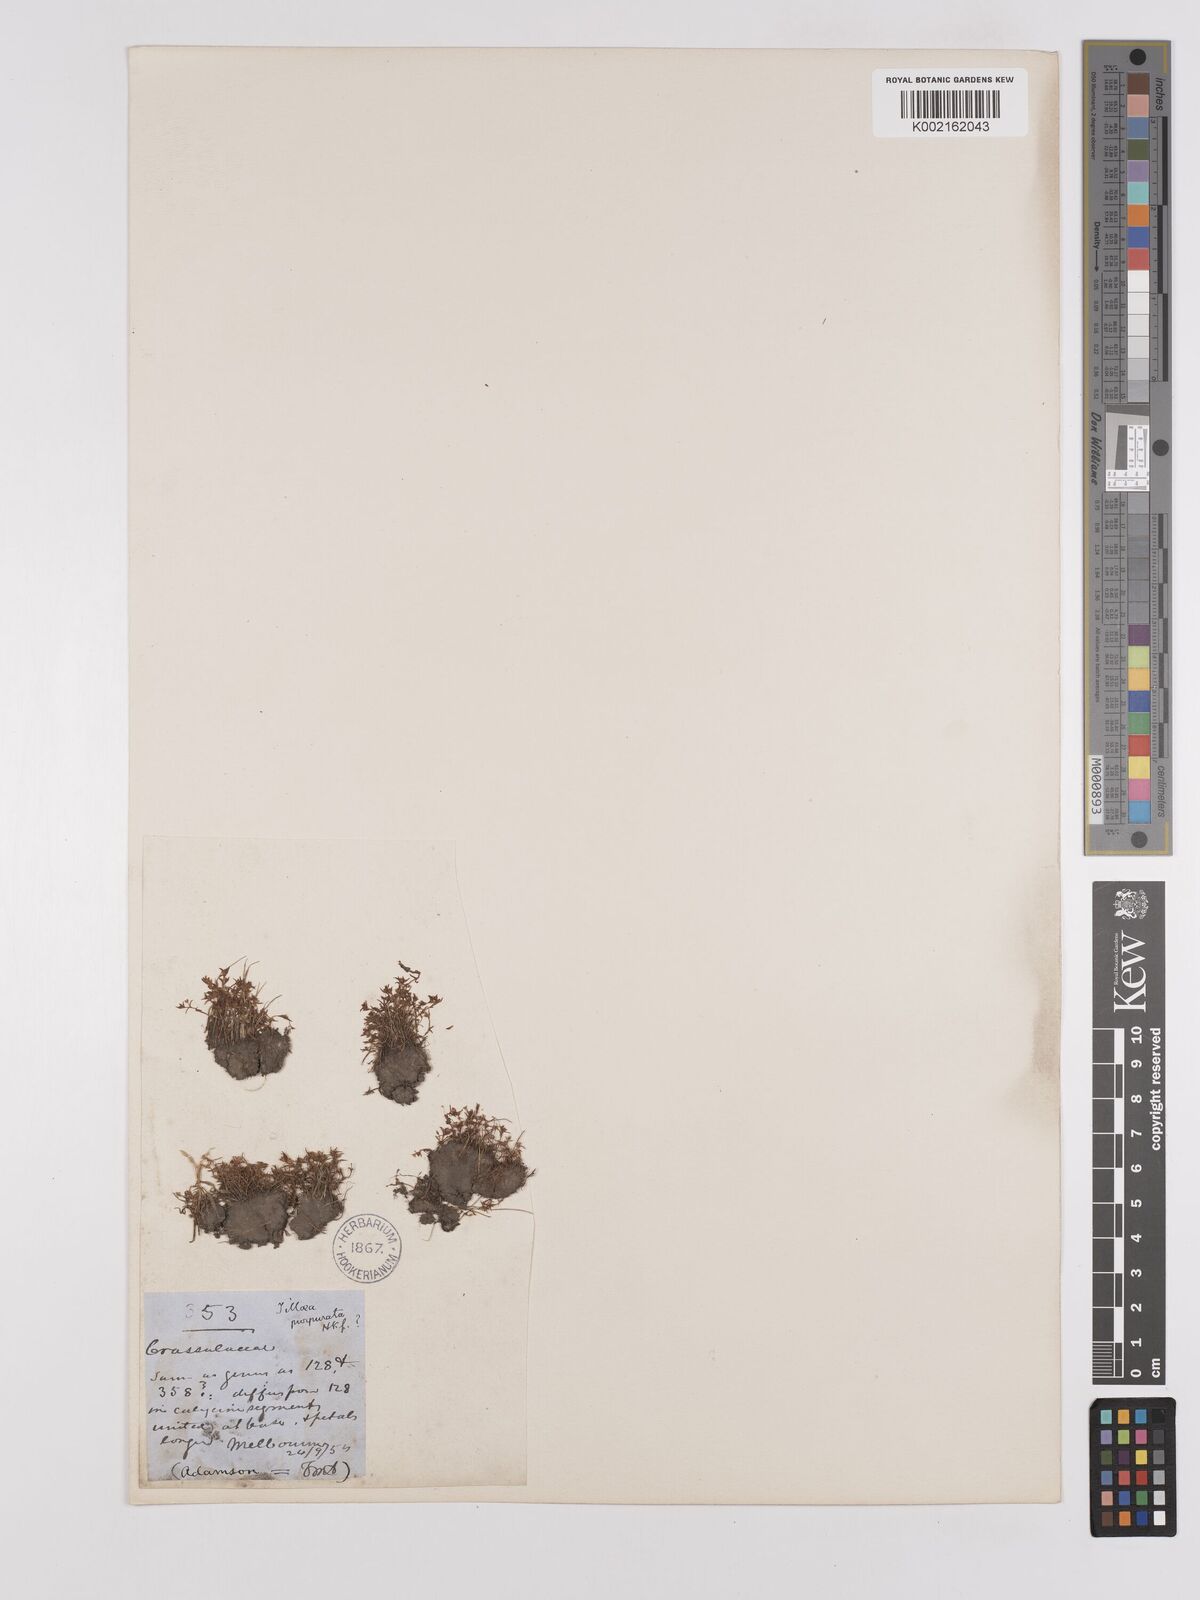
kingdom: Plantae
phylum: Tracheophyta
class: Magnoliopsida
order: Saxifragales
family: Crassulaceae
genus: Crassula
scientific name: Crassula peduncularis
